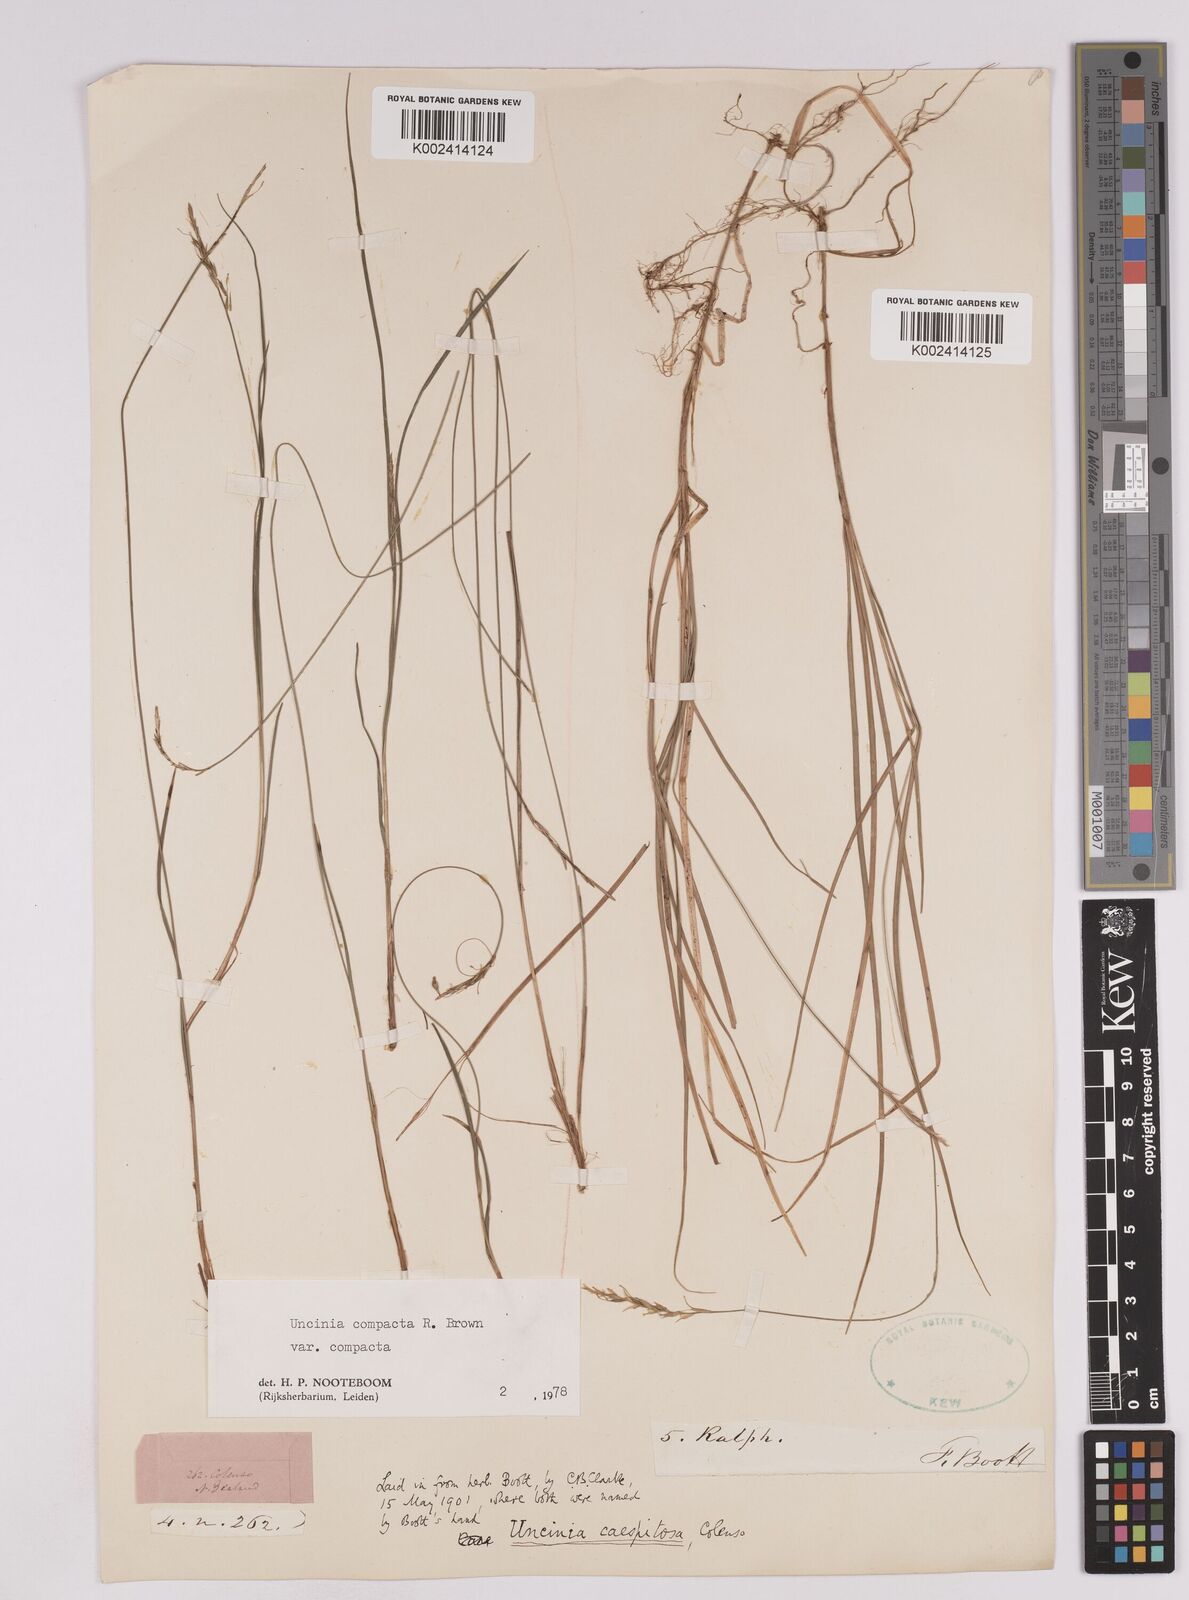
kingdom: Plantae
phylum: Tracheophyta
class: Liliopsida
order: Poales
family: Cyperaceae
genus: Carex
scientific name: Carex austrocompacta
